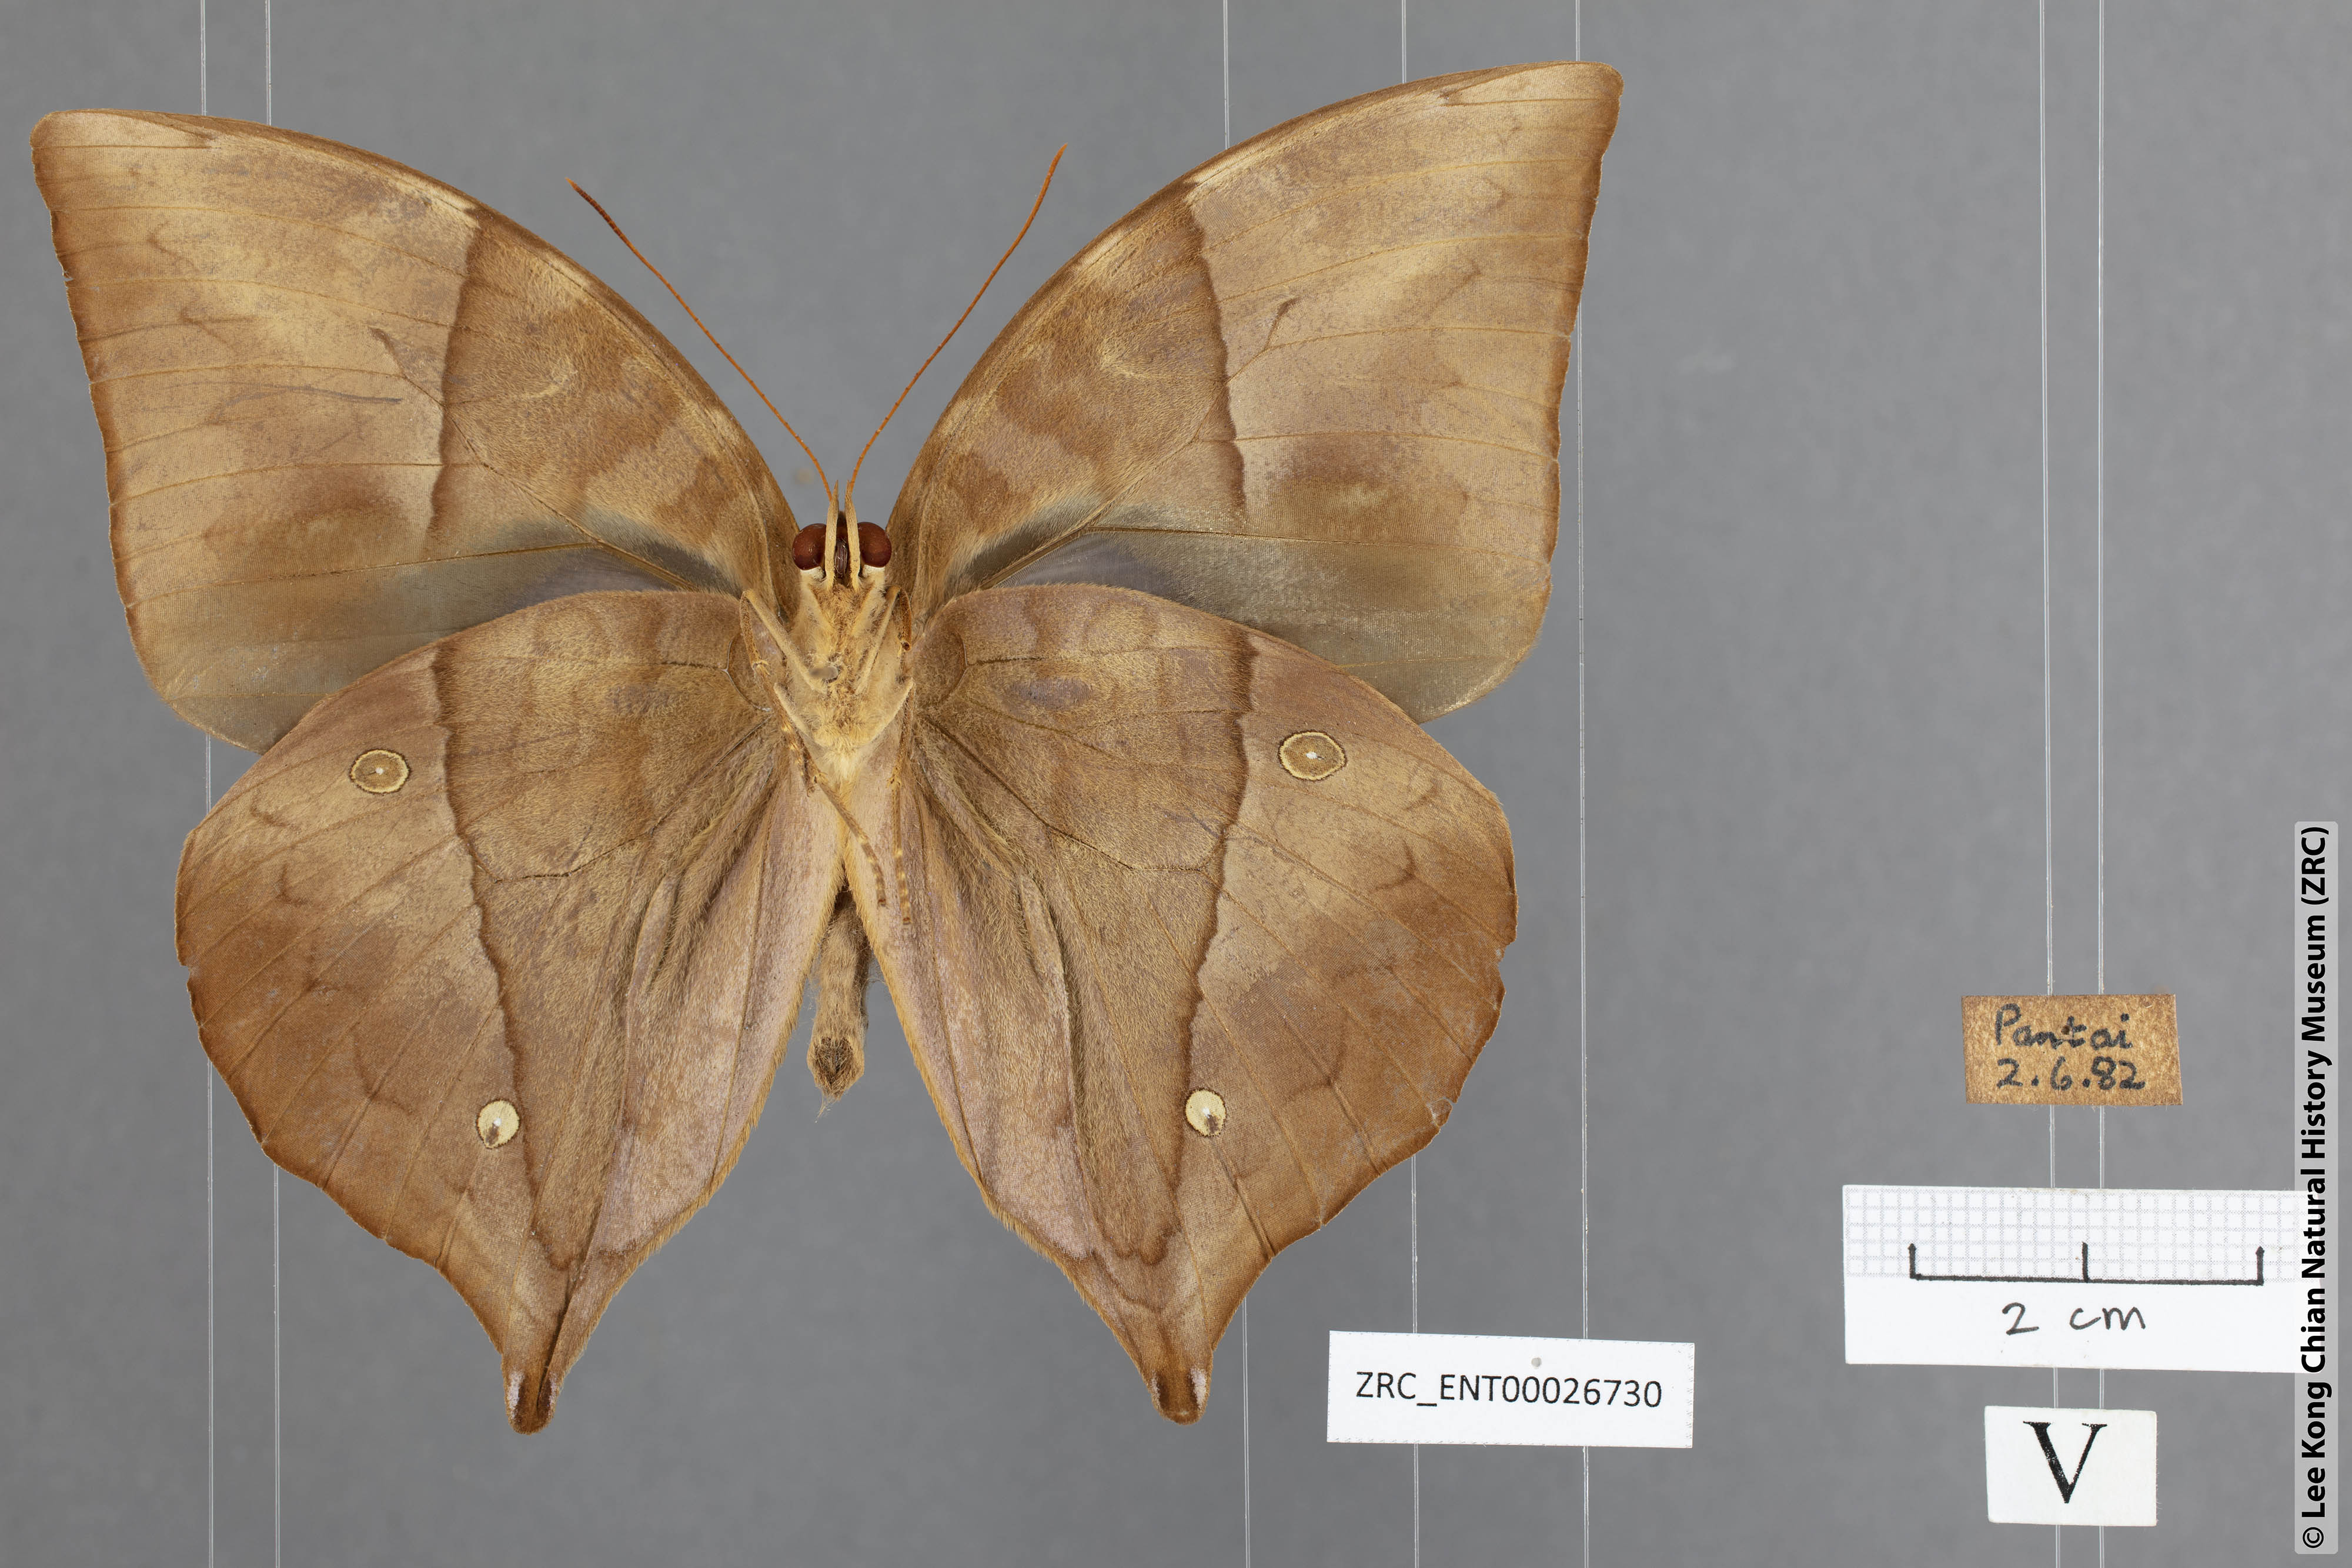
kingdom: Animalia
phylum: Arthropoda
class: Insecta
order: Lepidoptera
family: Nymphalidae
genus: Zeuxidia
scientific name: Zeuxidia doubledaii
